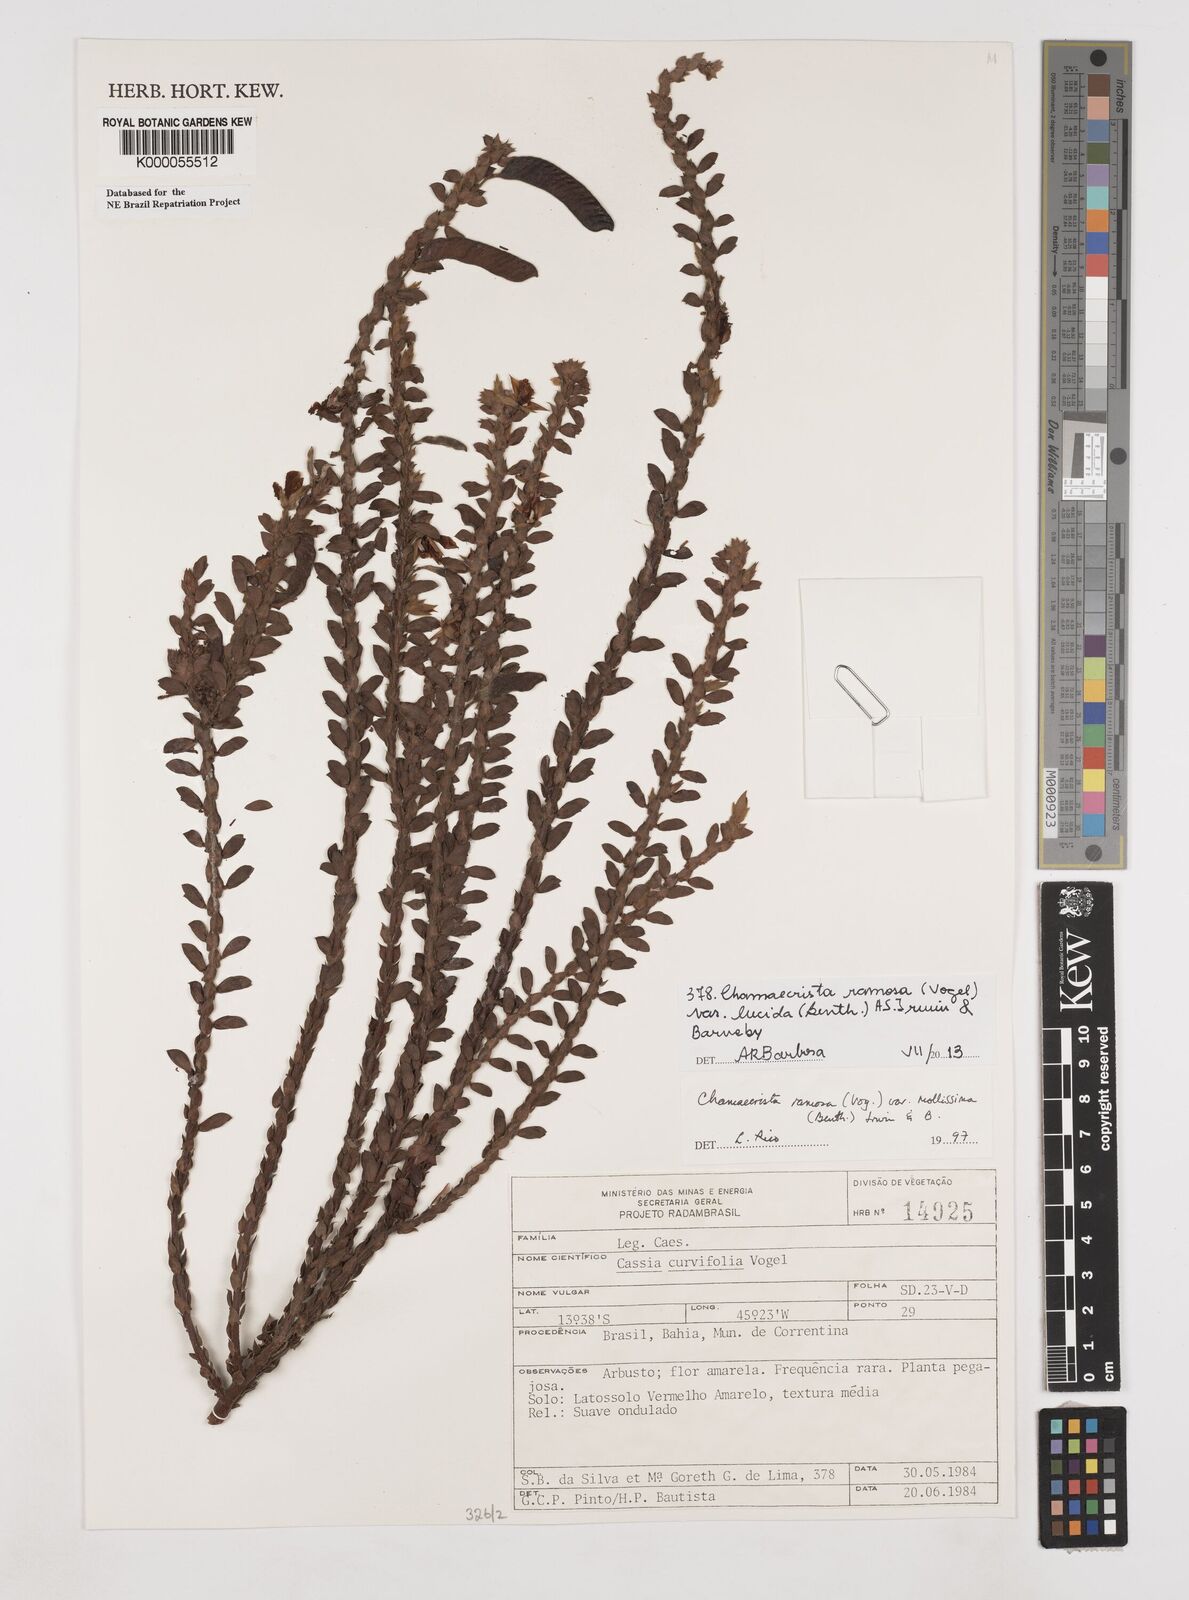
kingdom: Plantae
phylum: Tracheophyta
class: Magnoliopsida
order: Fabales
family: Fabaceae
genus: Chamaecrista
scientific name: Chamaecrista ramosa
